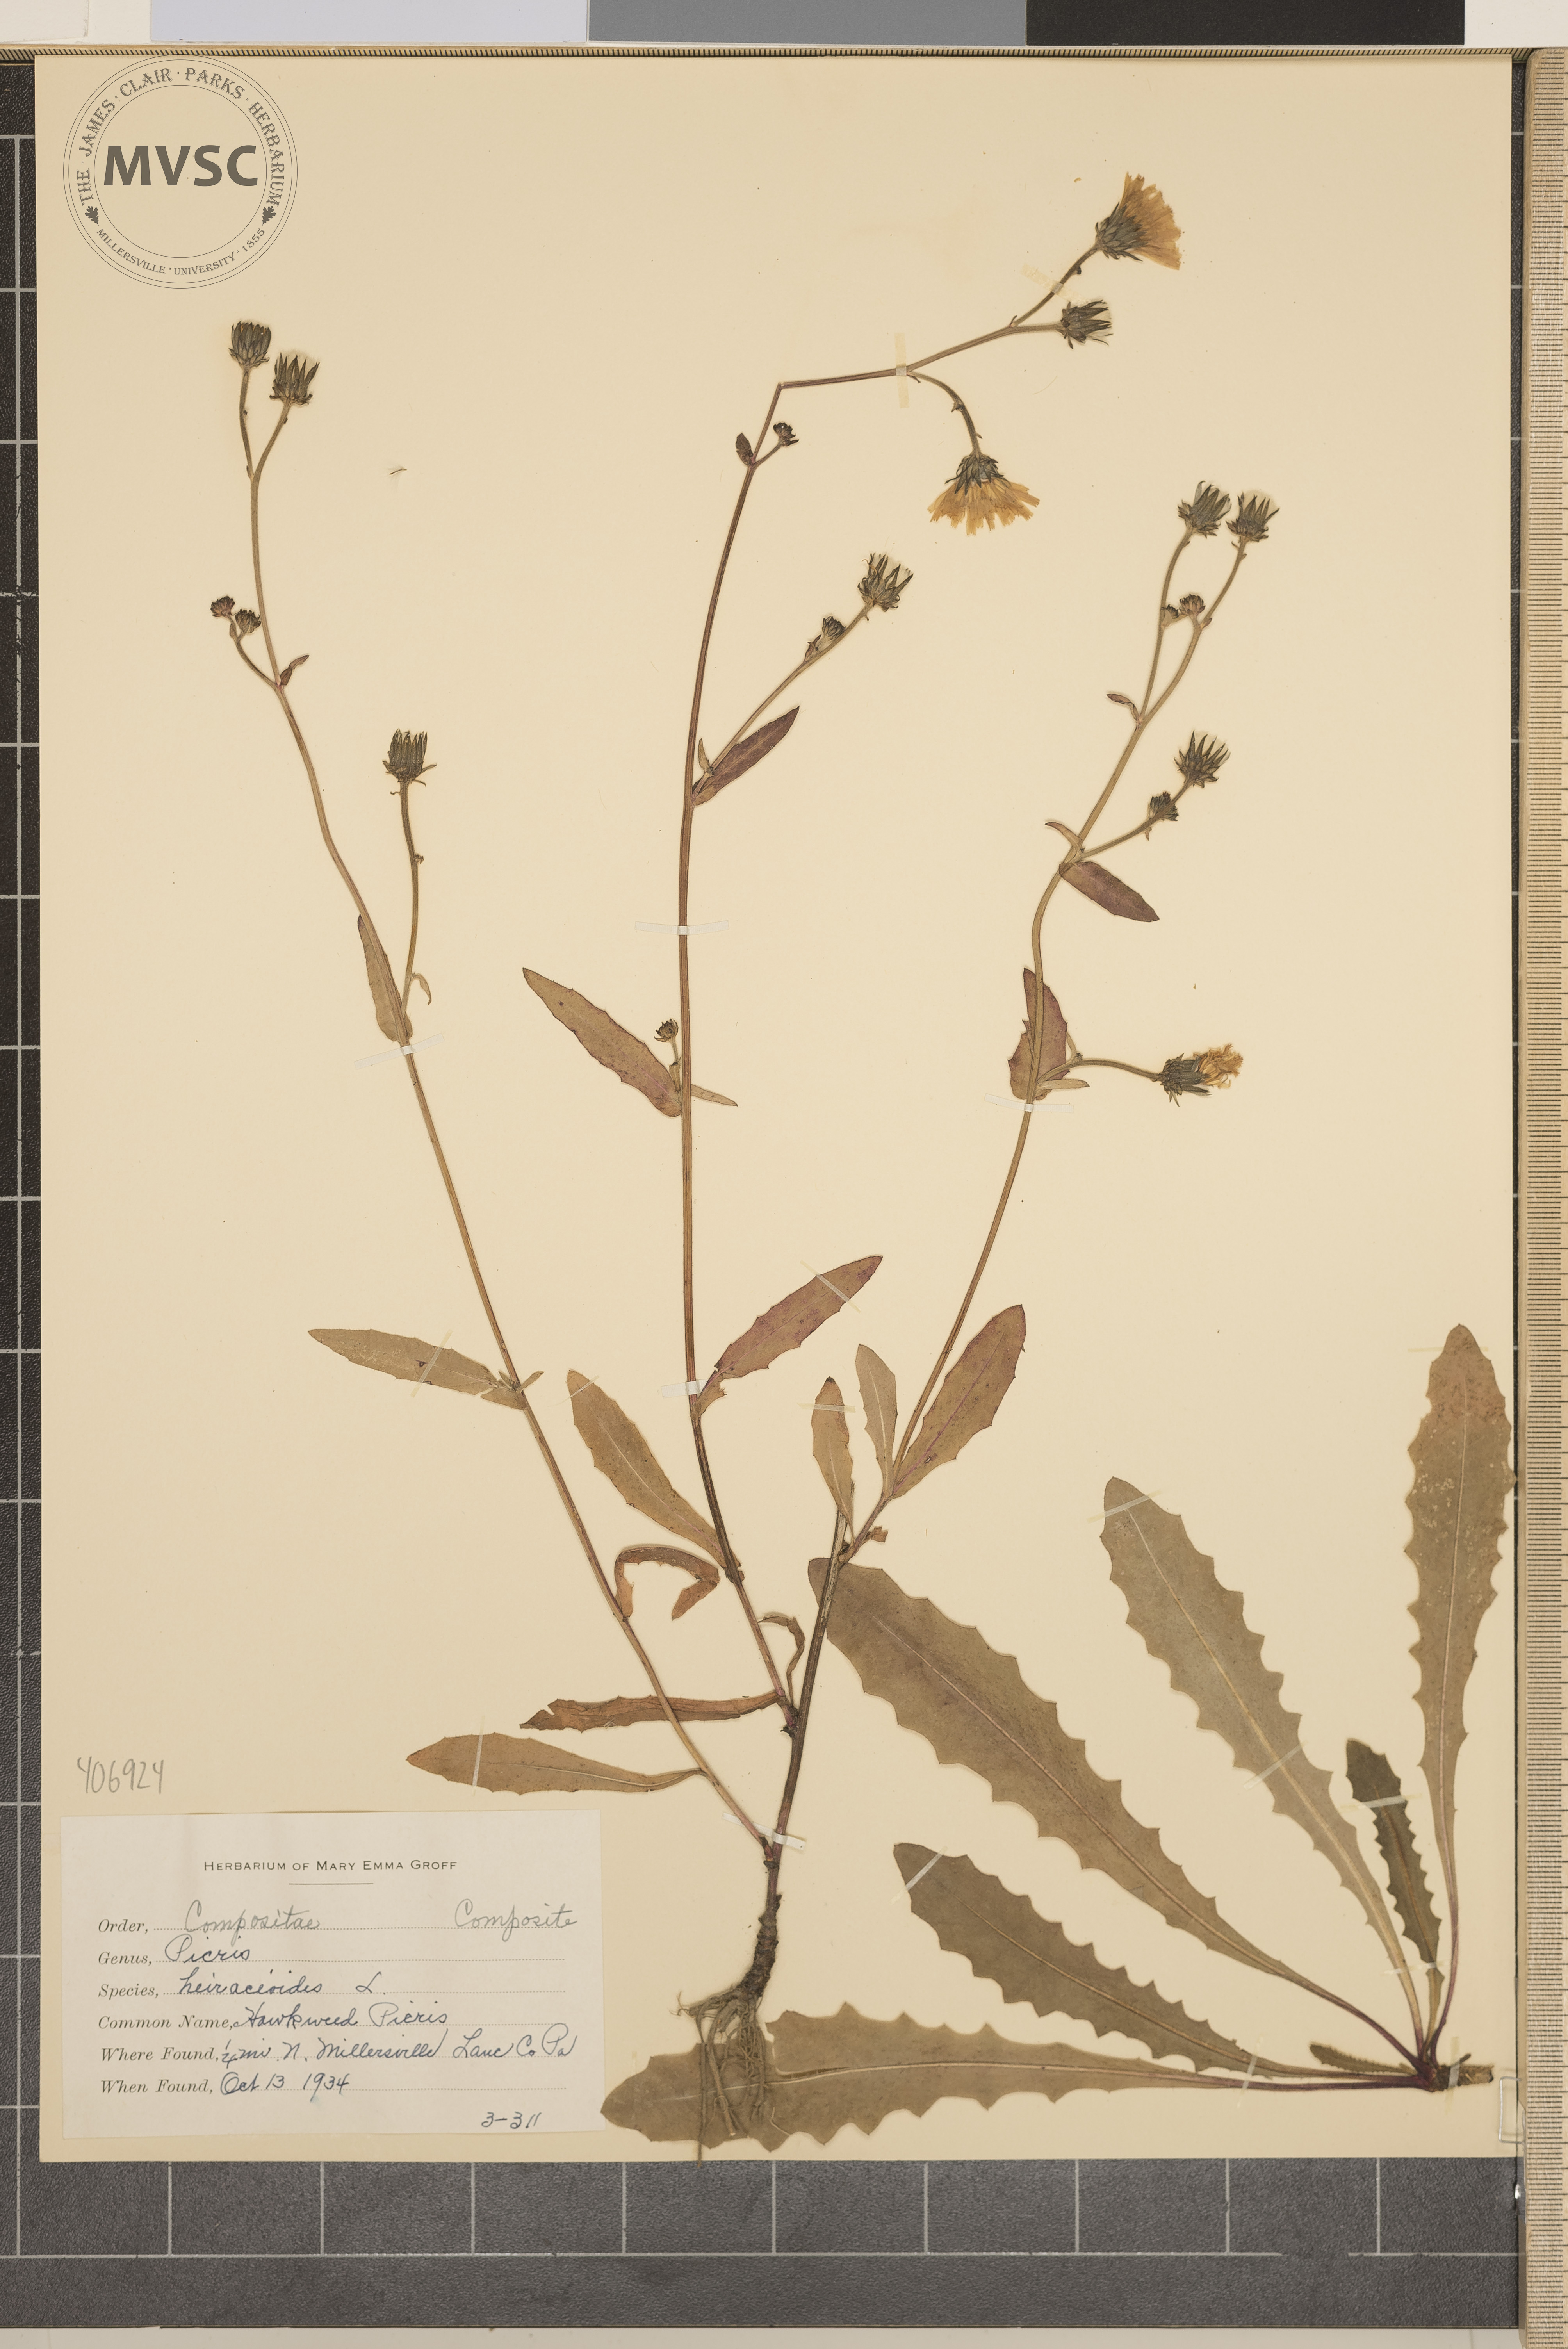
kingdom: Plantae
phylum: Tracheophyta
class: Magnoliopsida
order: Asterales
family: Asteraceae
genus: Picris
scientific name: Picris hieracioides
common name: Hawkweed Picris
